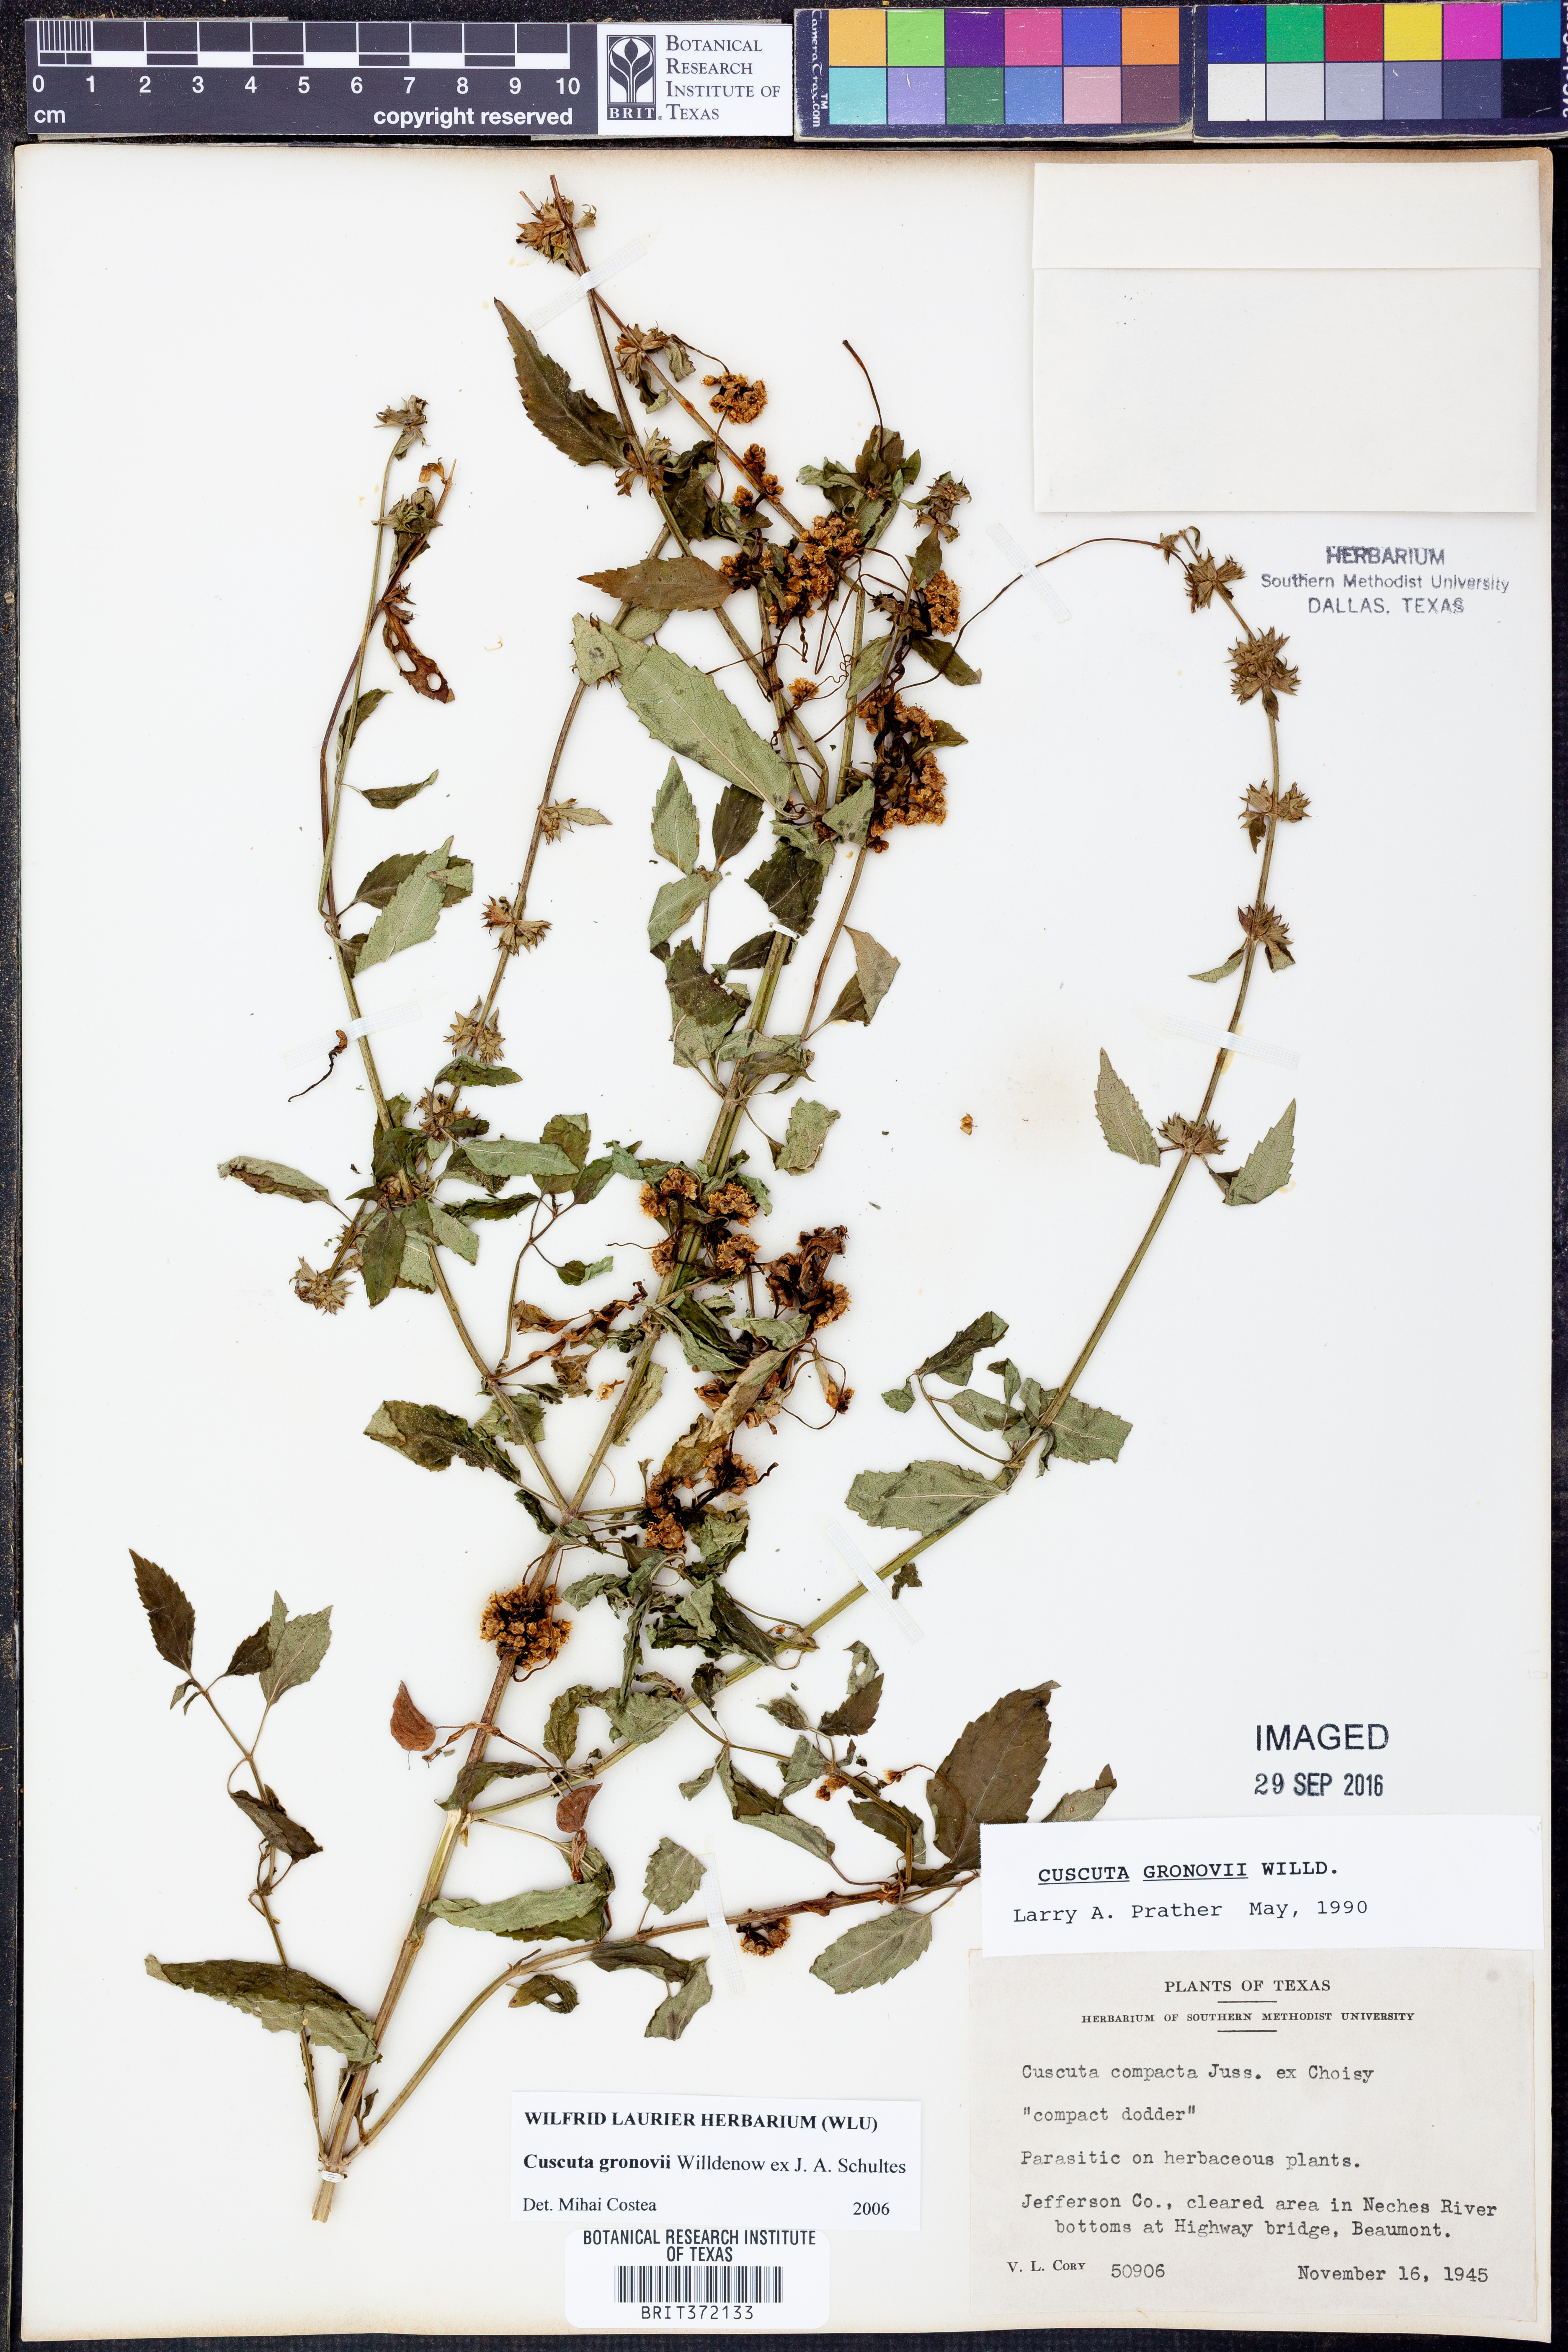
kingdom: Plantae
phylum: Tracheophyta
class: Magnoliopsida
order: Solanales
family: Convolvulaceae
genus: Cuscuta
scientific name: Cuscuta gronovii
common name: Common dodder
